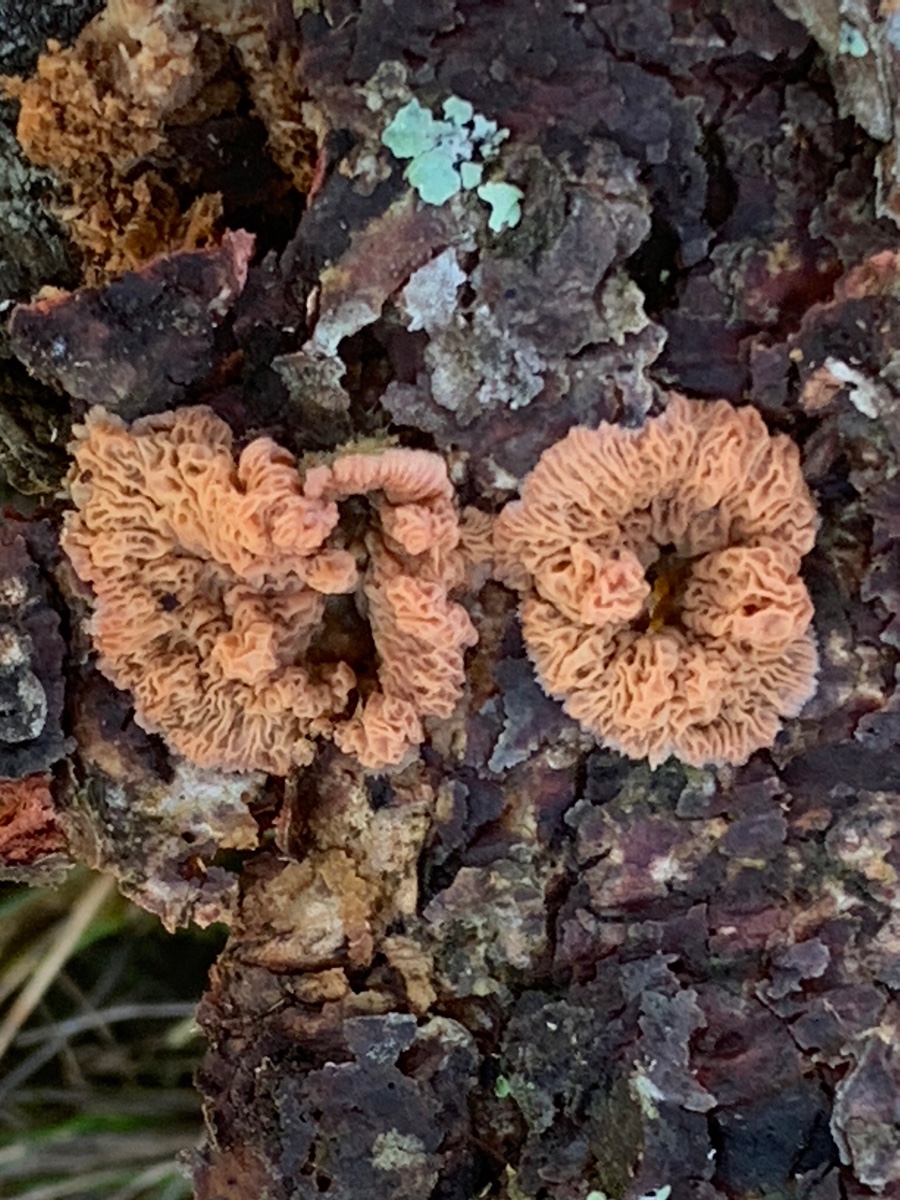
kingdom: Fungi
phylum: Basidiomycota
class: Agaricomycetes
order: Polyporales
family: Meruliaceae
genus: Phlebia
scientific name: Phlebia tremellosa
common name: bævrende åresvamp
